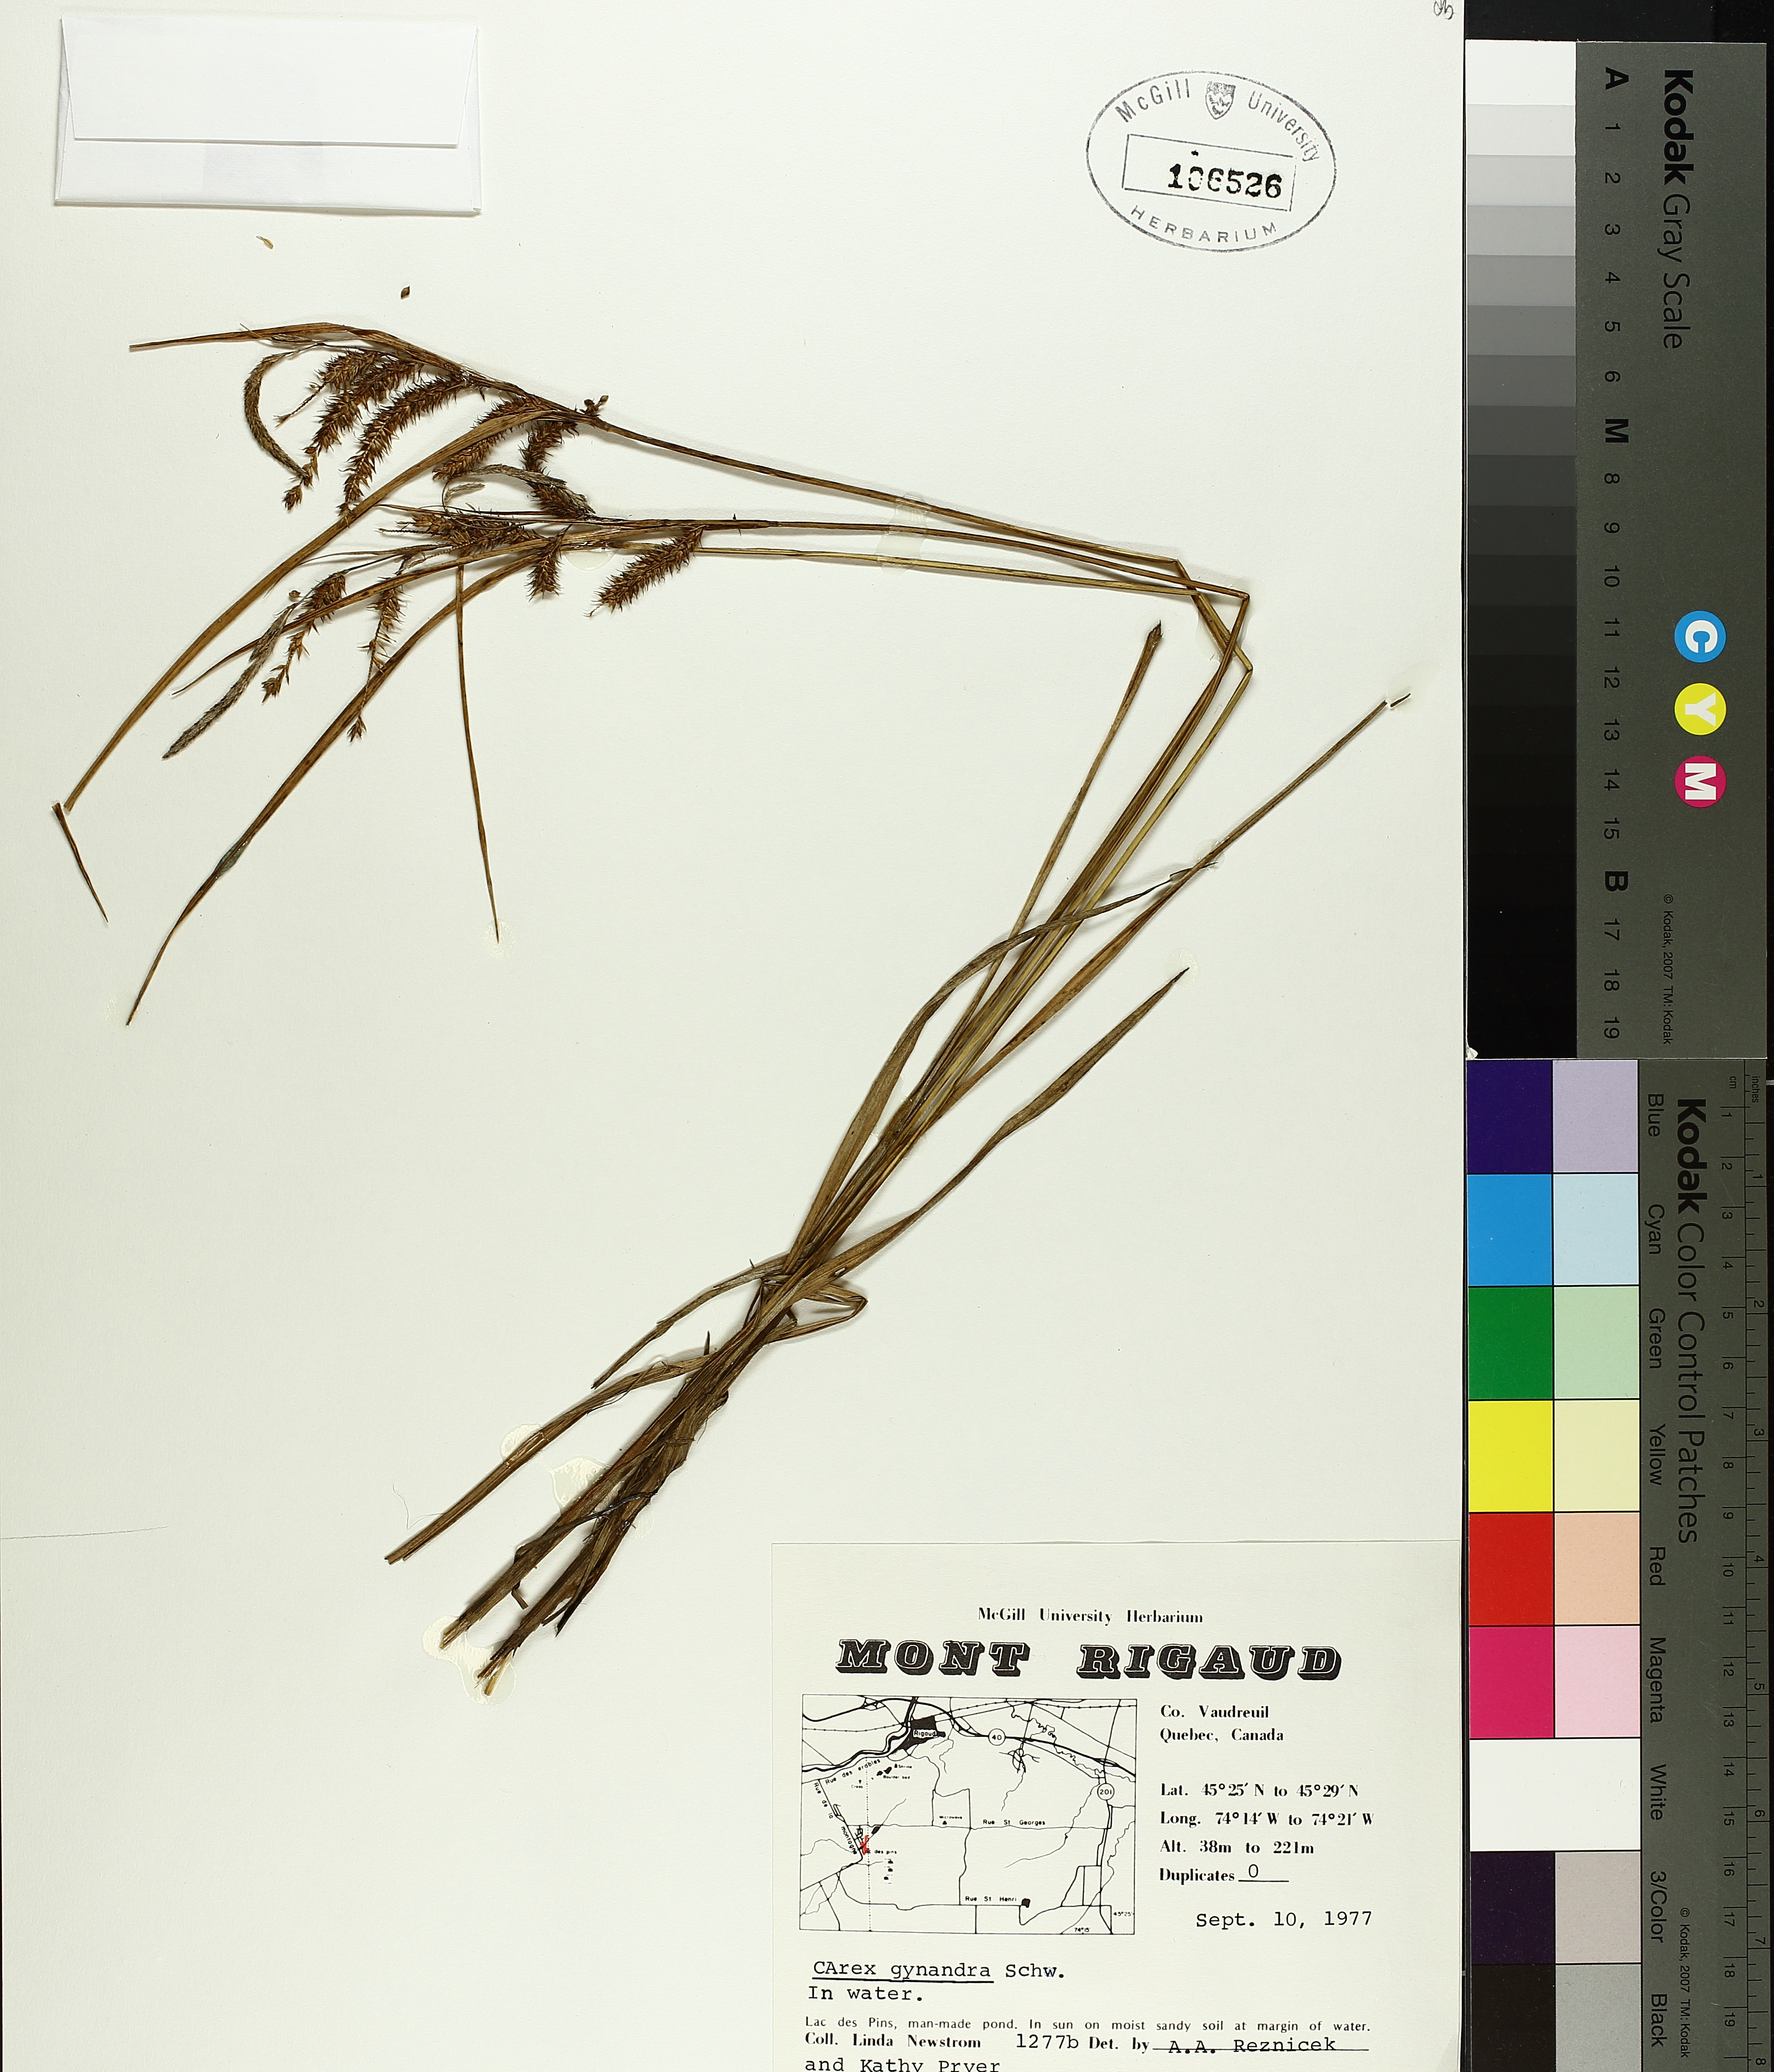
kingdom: Plantae
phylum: Tracheophyta
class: Liliopsida
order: Poales
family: Cyperaceae
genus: Carex
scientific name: Carex gynandra
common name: Nodding sedge
